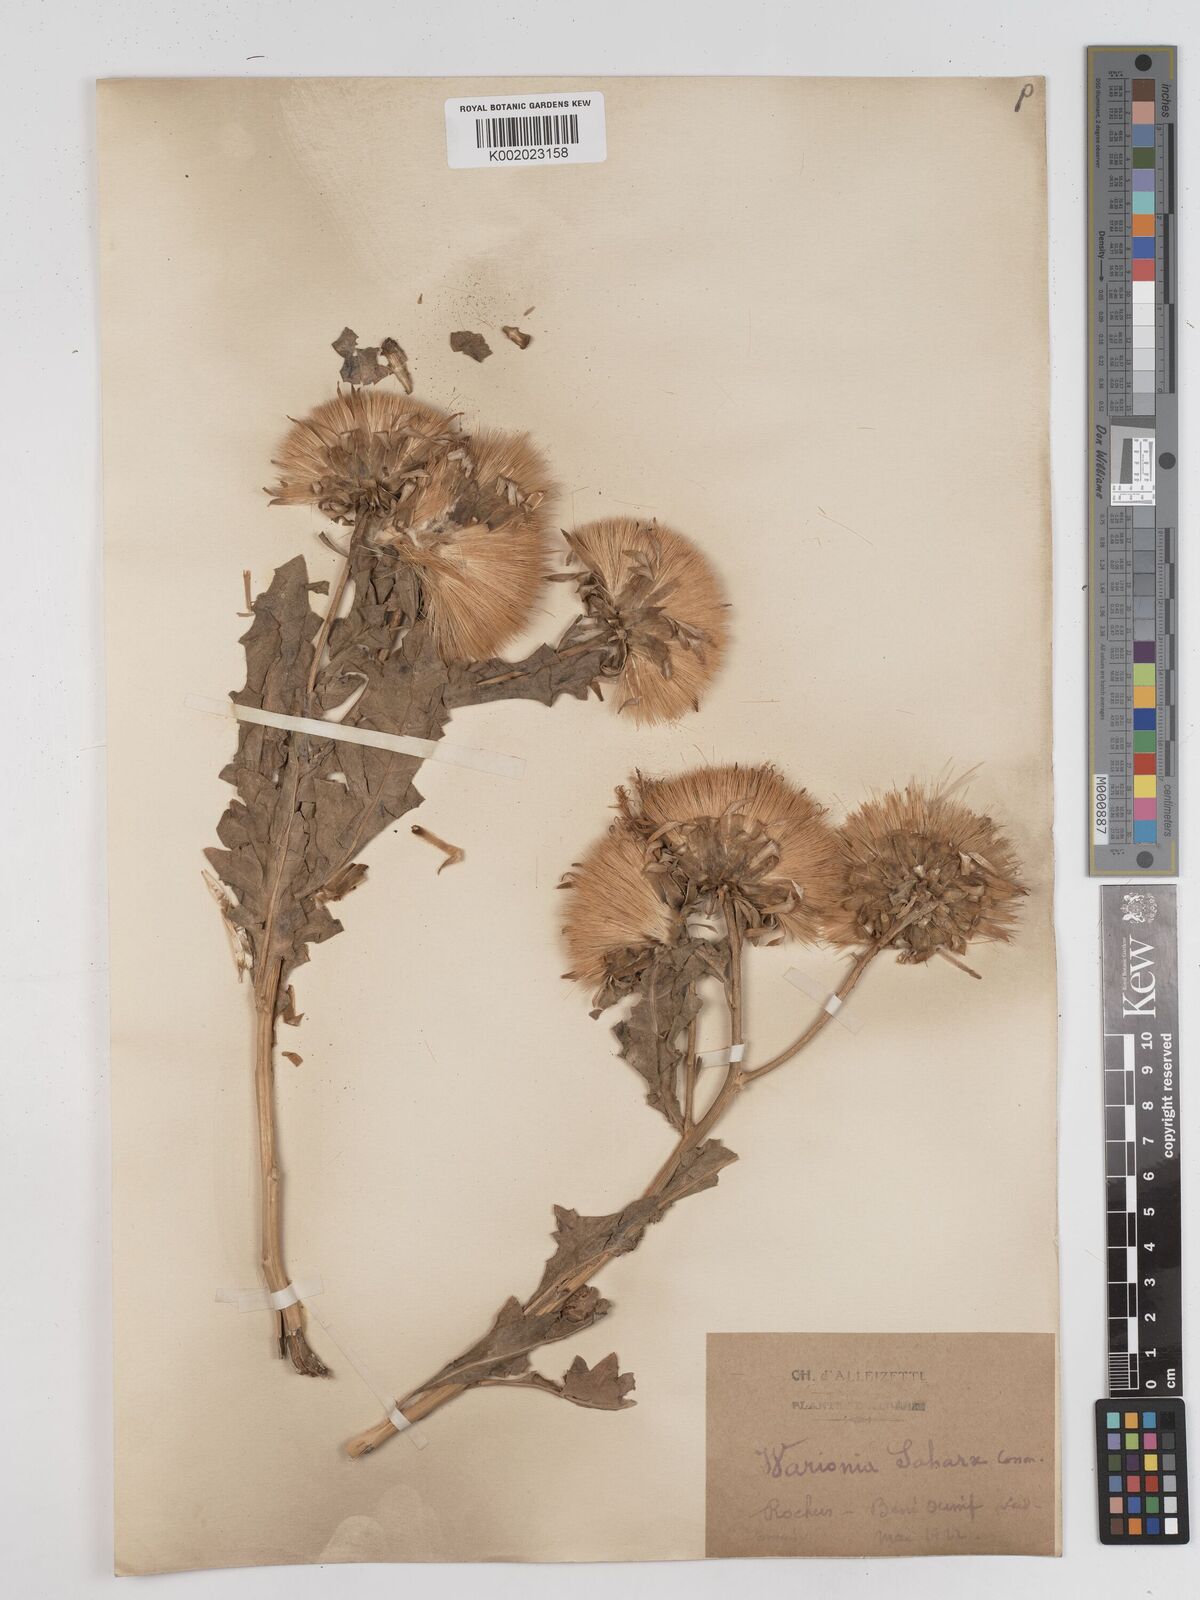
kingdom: Plantae
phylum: Tracheophyta
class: Magnoliopsida
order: Asterales
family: Asteraceae
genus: Warionia
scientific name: Warionia saharae
